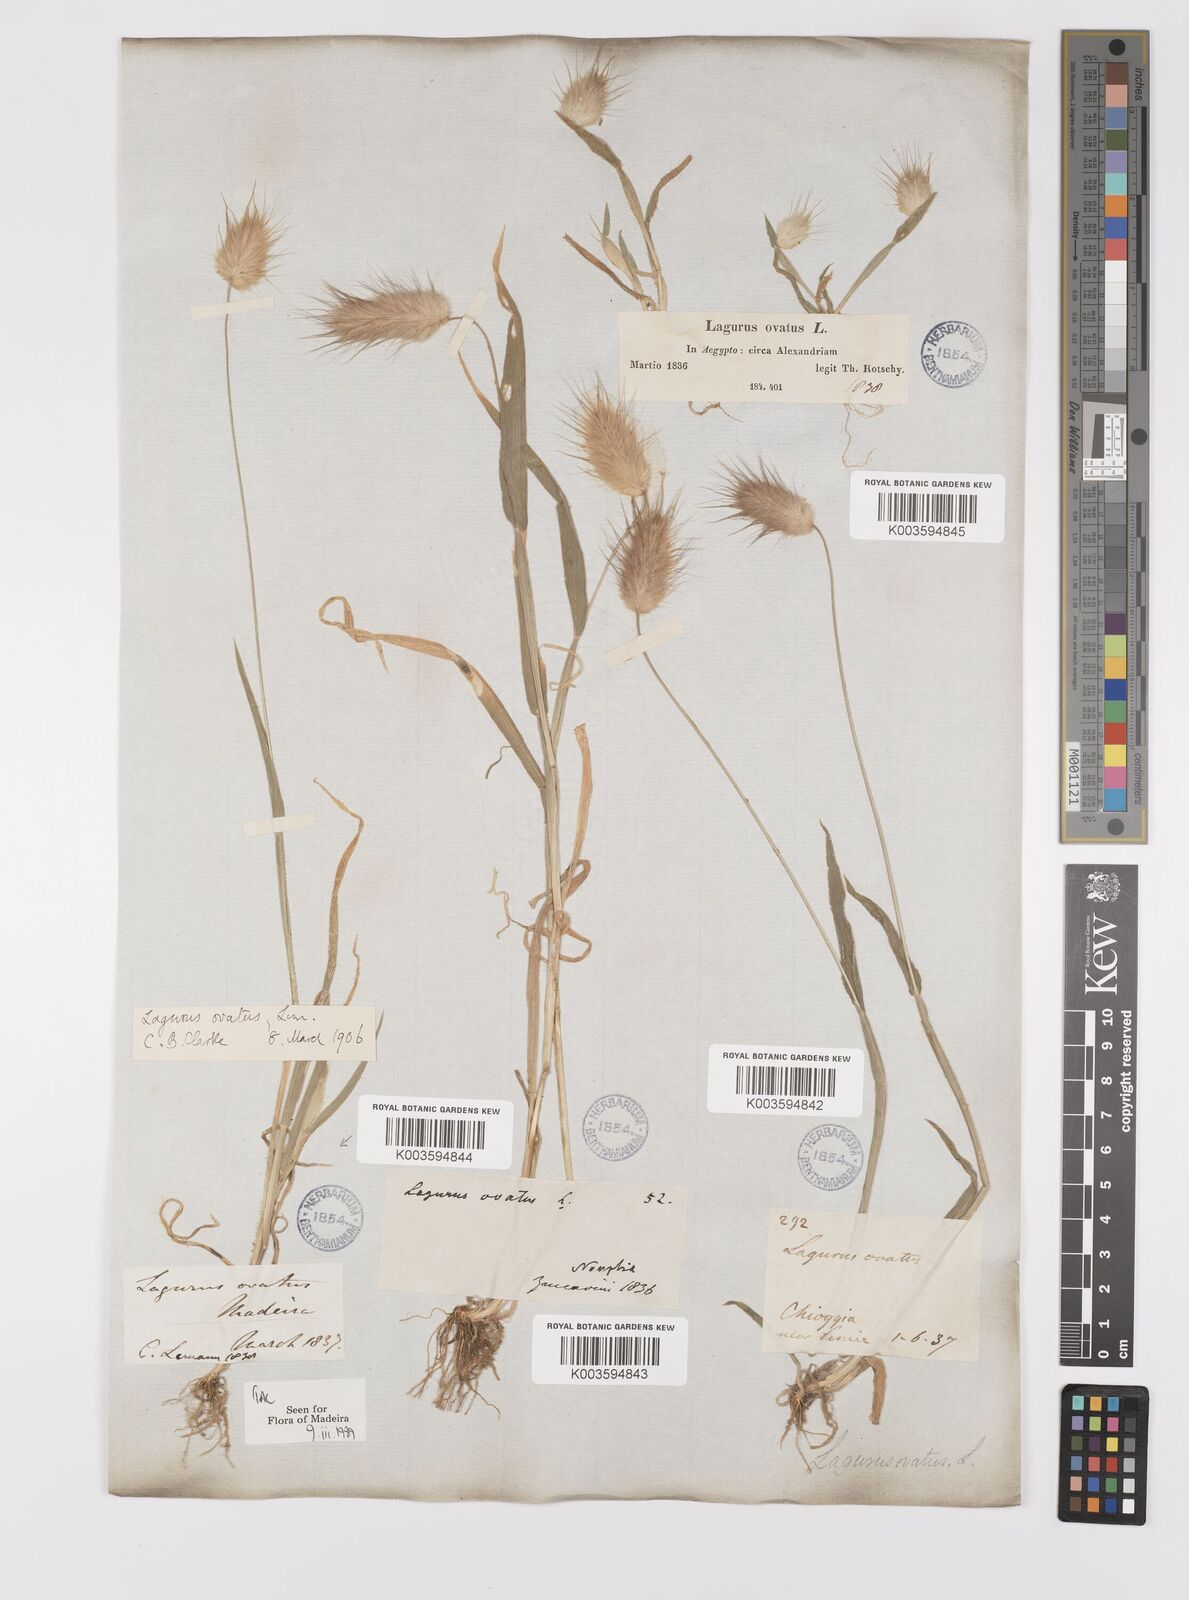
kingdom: Plantae
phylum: Tracheophyta
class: Liliopsida
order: Poales
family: Poaceae
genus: Lagurus
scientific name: Lagurus ovatus
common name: Hare's-tail
